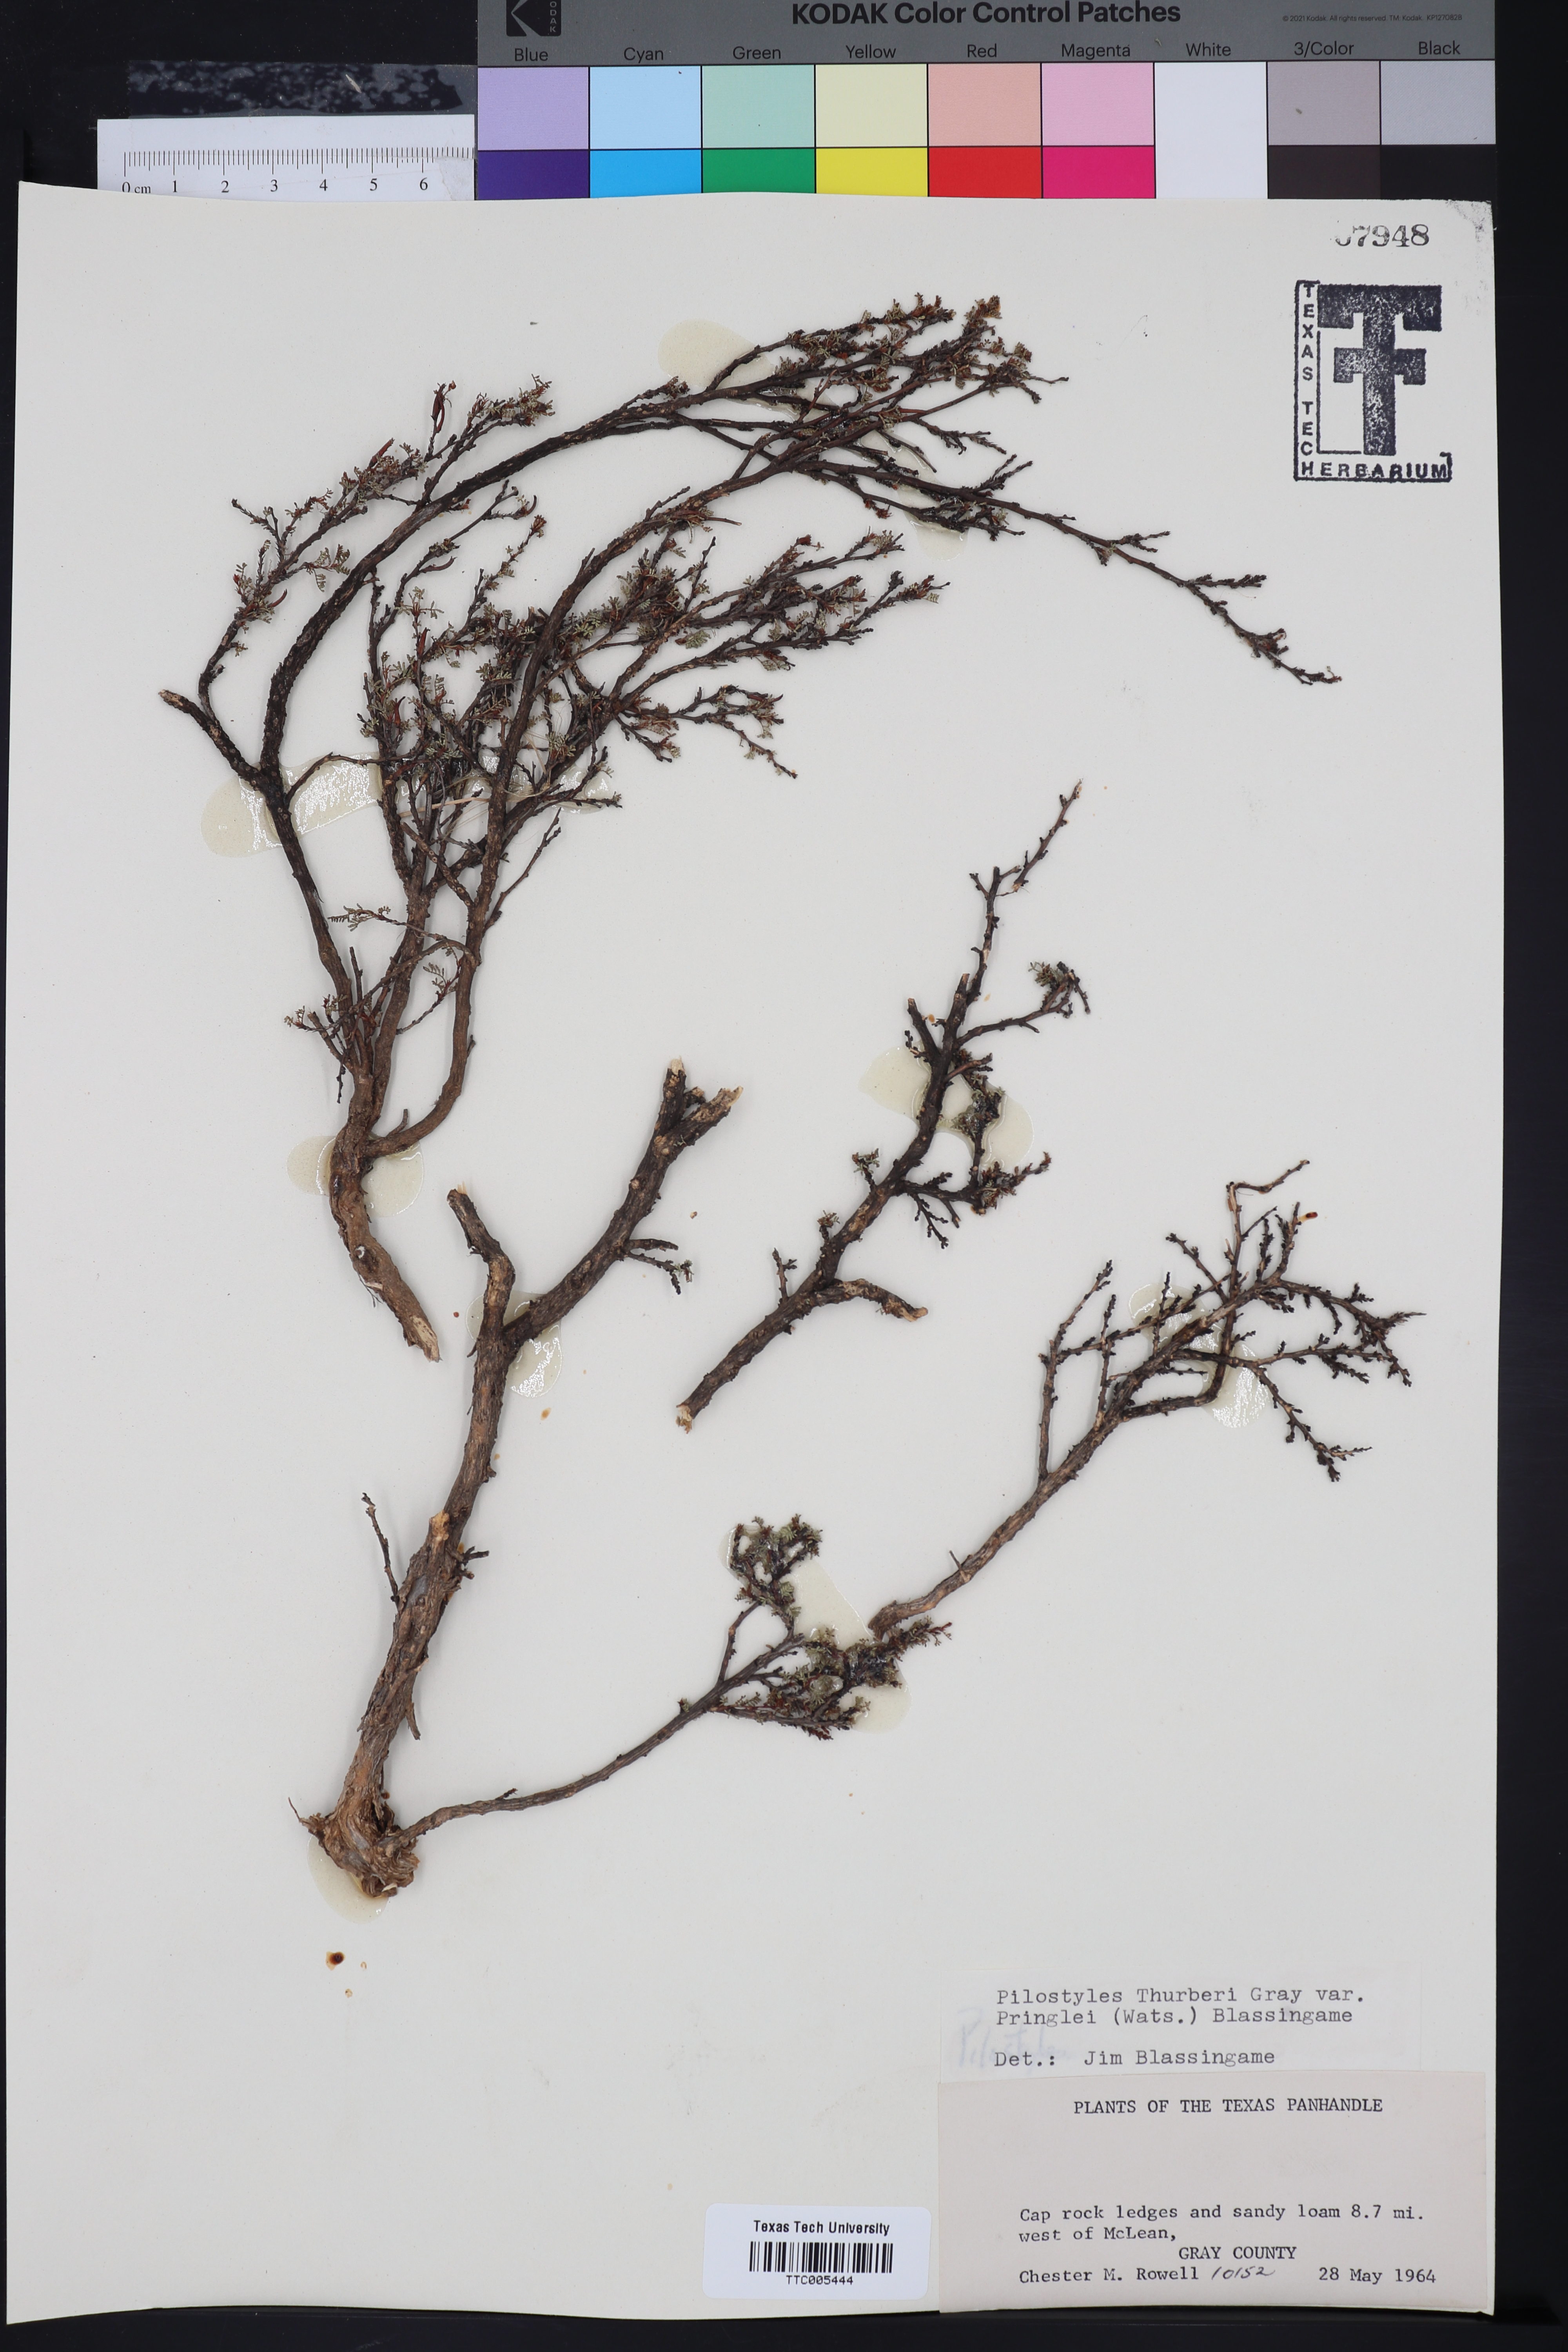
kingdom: Plantae
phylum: Tracheophyta
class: Magnoliopsida
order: Cucurbitales
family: Apodanthaceae
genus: Pilostyles
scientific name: Pilostyles thurberi
